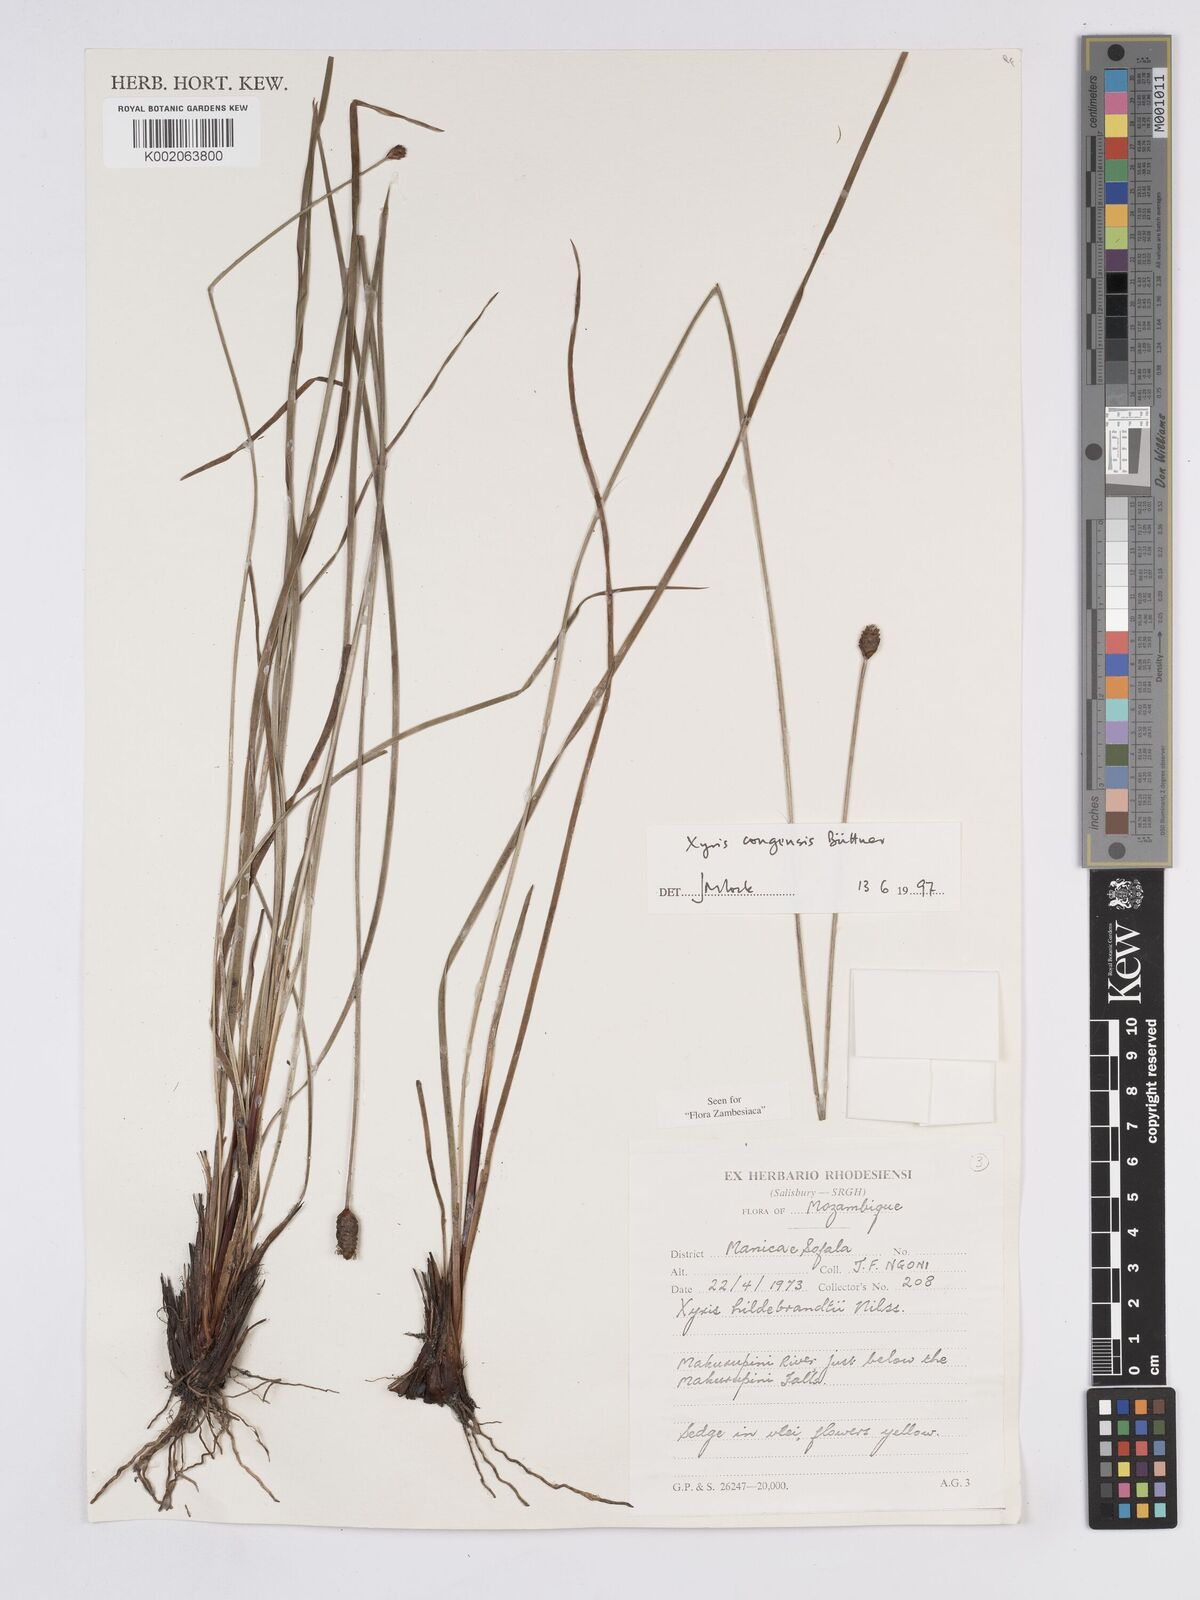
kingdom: Plantae
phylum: Tracheophyta
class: Liliopsida
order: Poales
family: Xyridaceae
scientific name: Xyridaceae
